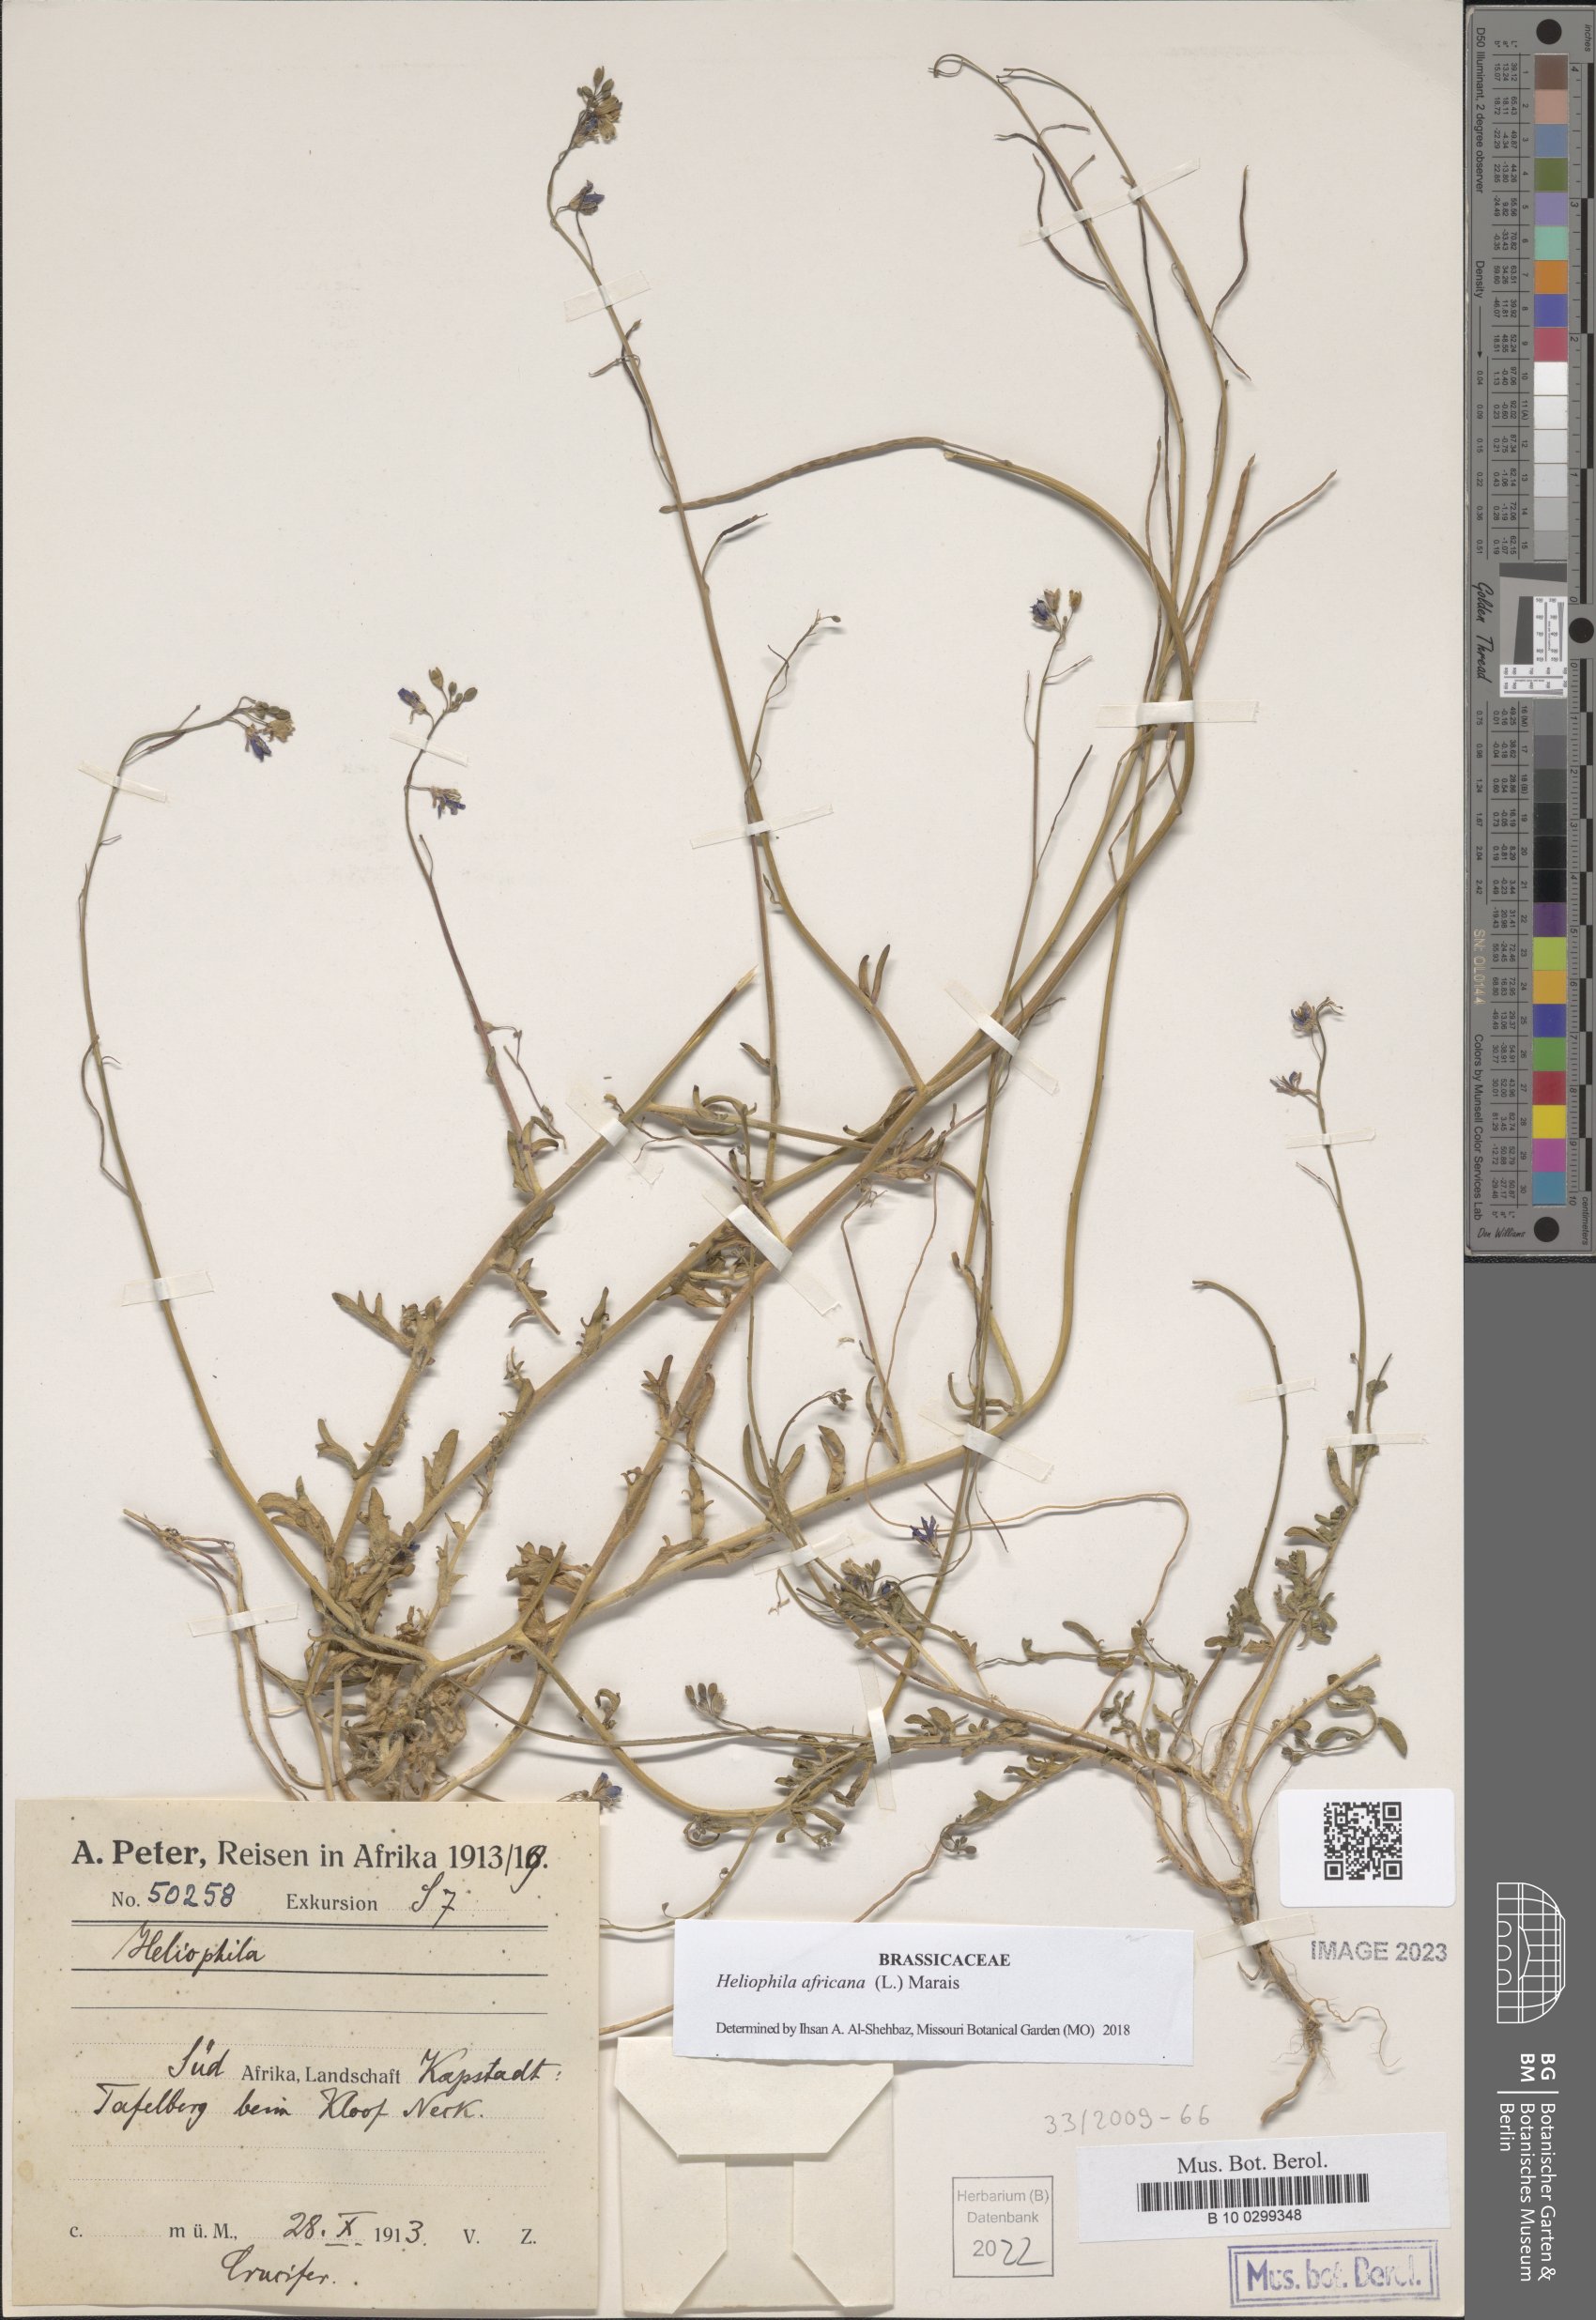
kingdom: Plantae
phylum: Tracheophyta
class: Magnoliopsida
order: Brassicales
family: Brassicaceae
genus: Heliophila
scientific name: Heliophila africana
